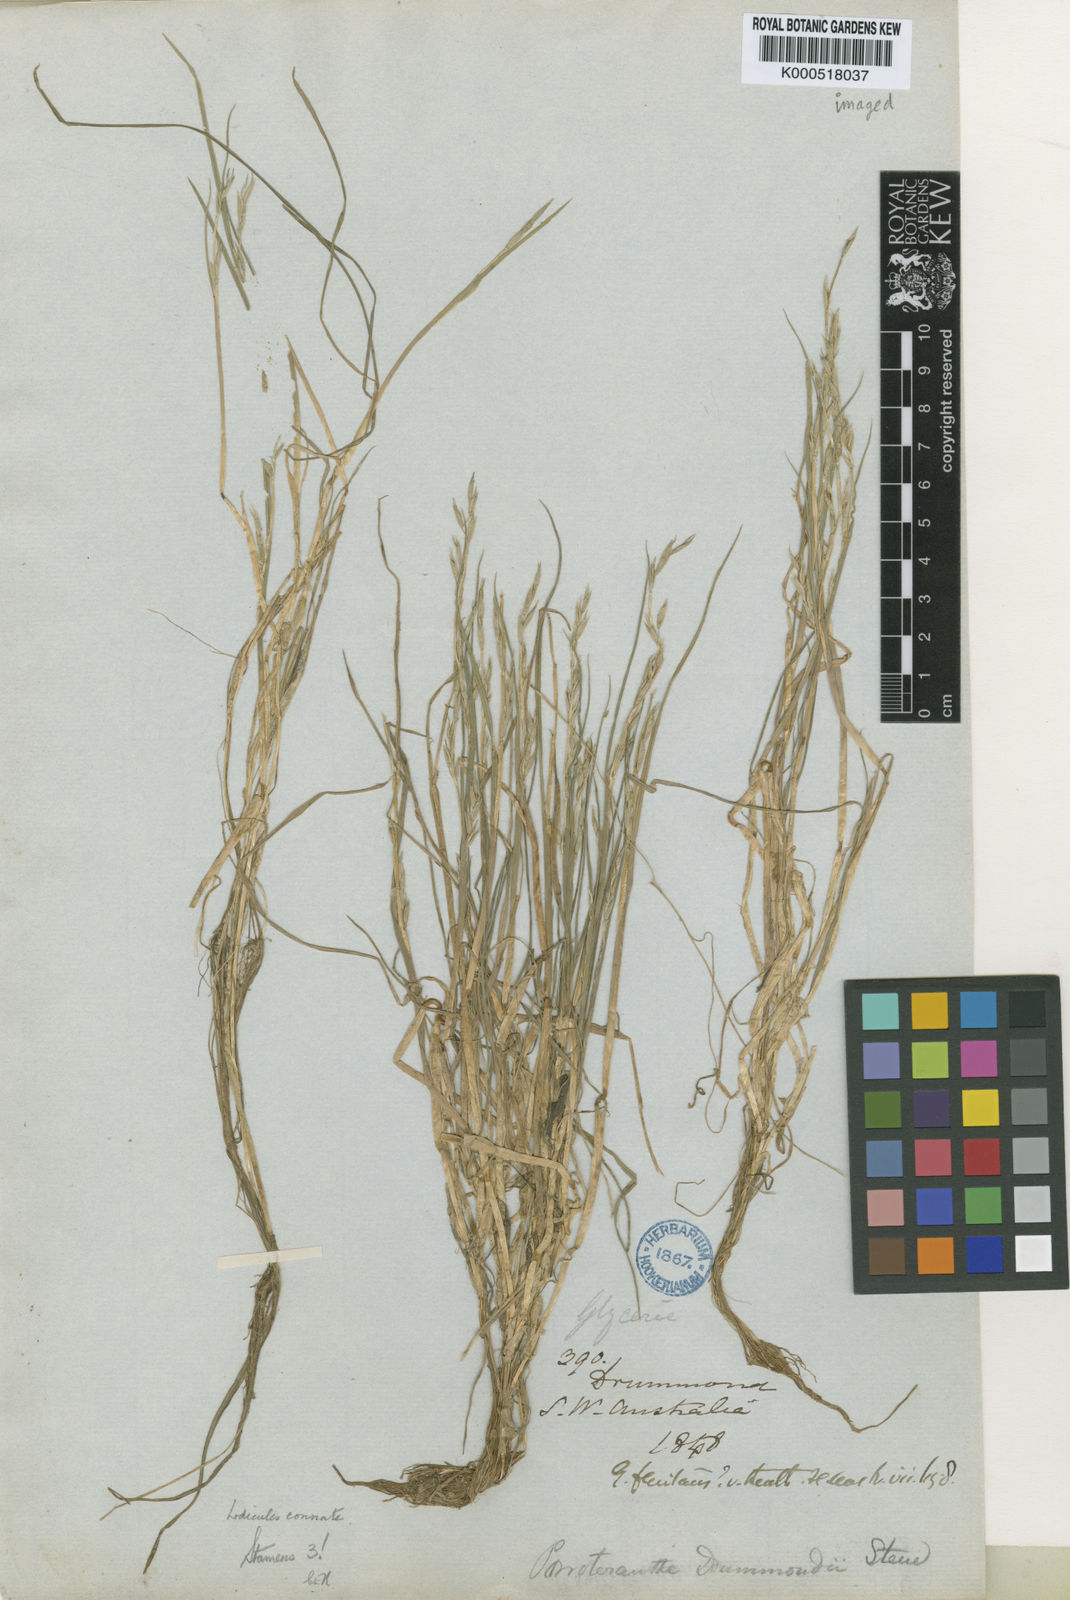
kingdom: Plantae
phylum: Tracheophyta
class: Liliopsida
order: Poales
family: Poaceae
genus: Glyceria
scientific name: Glyceria drummondii
